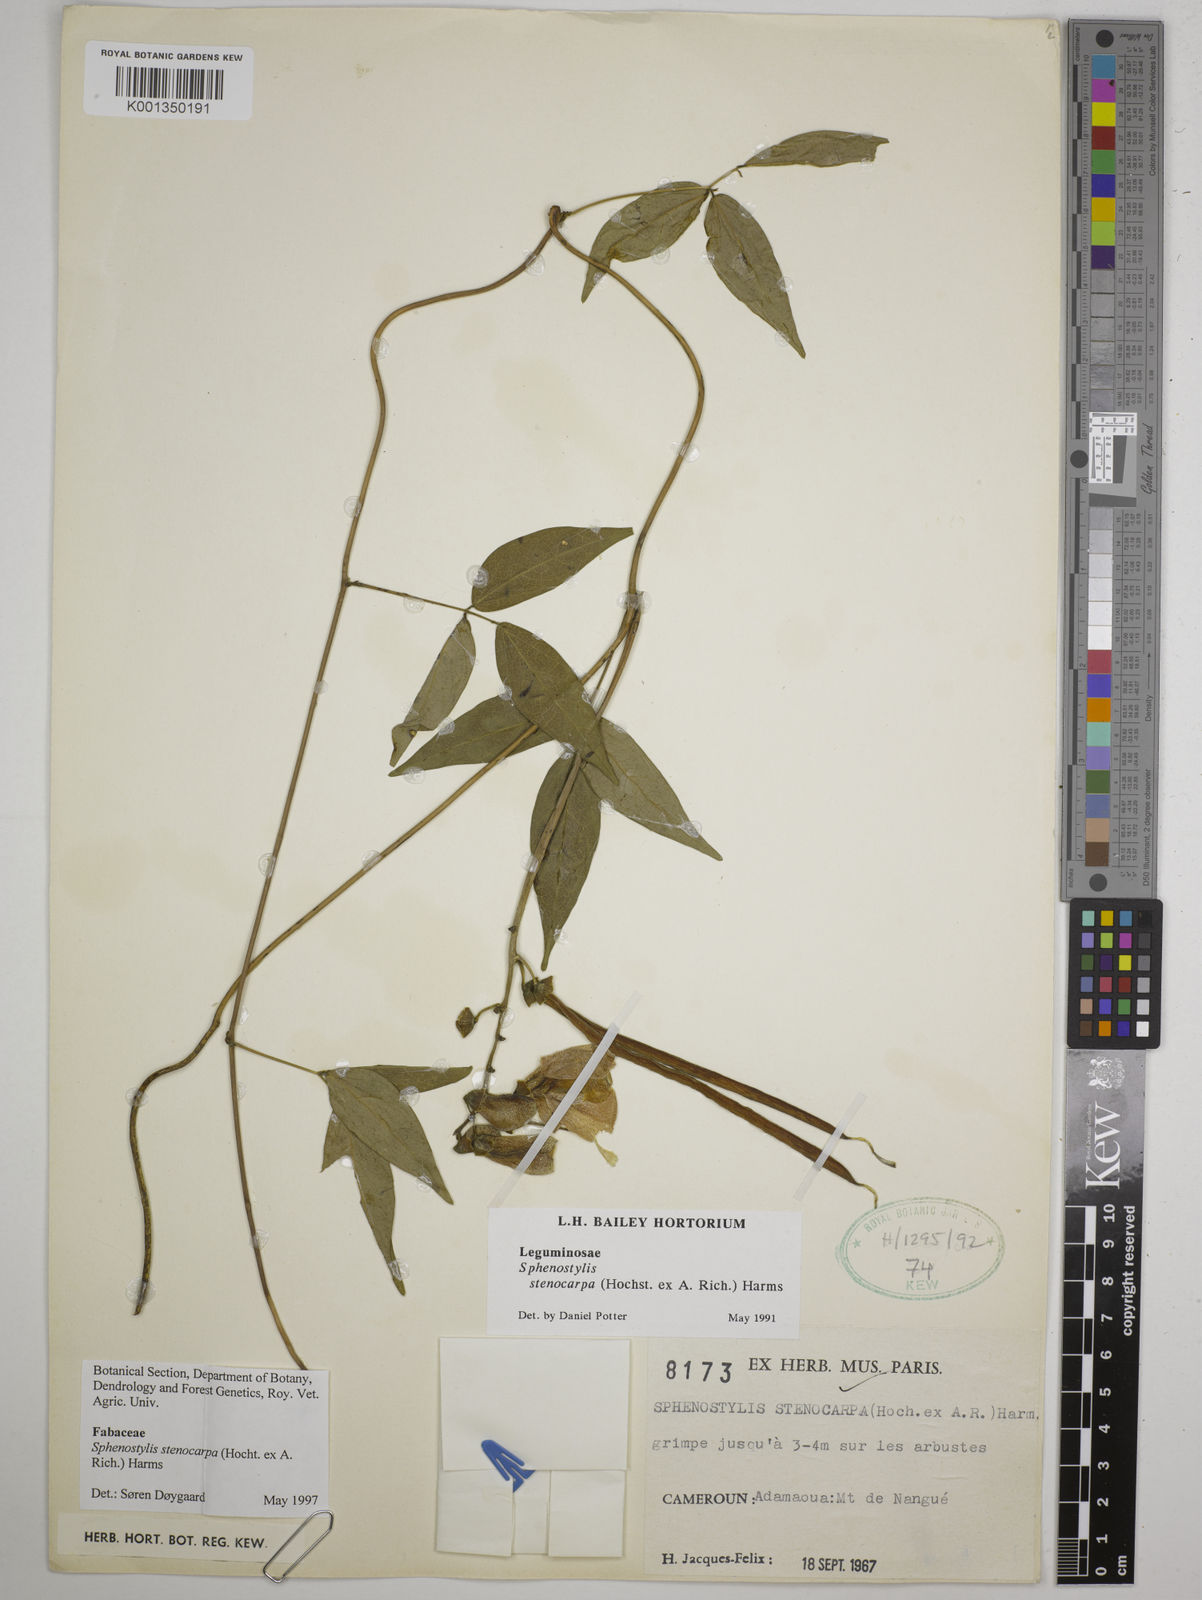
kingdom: Plantae
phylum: Tracheophyta
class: Magnoliopsida
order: Fabales
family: Fabaceae
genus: Sphenostylis
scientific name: Sphenostylis stenocarpa
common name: Yam-pea
